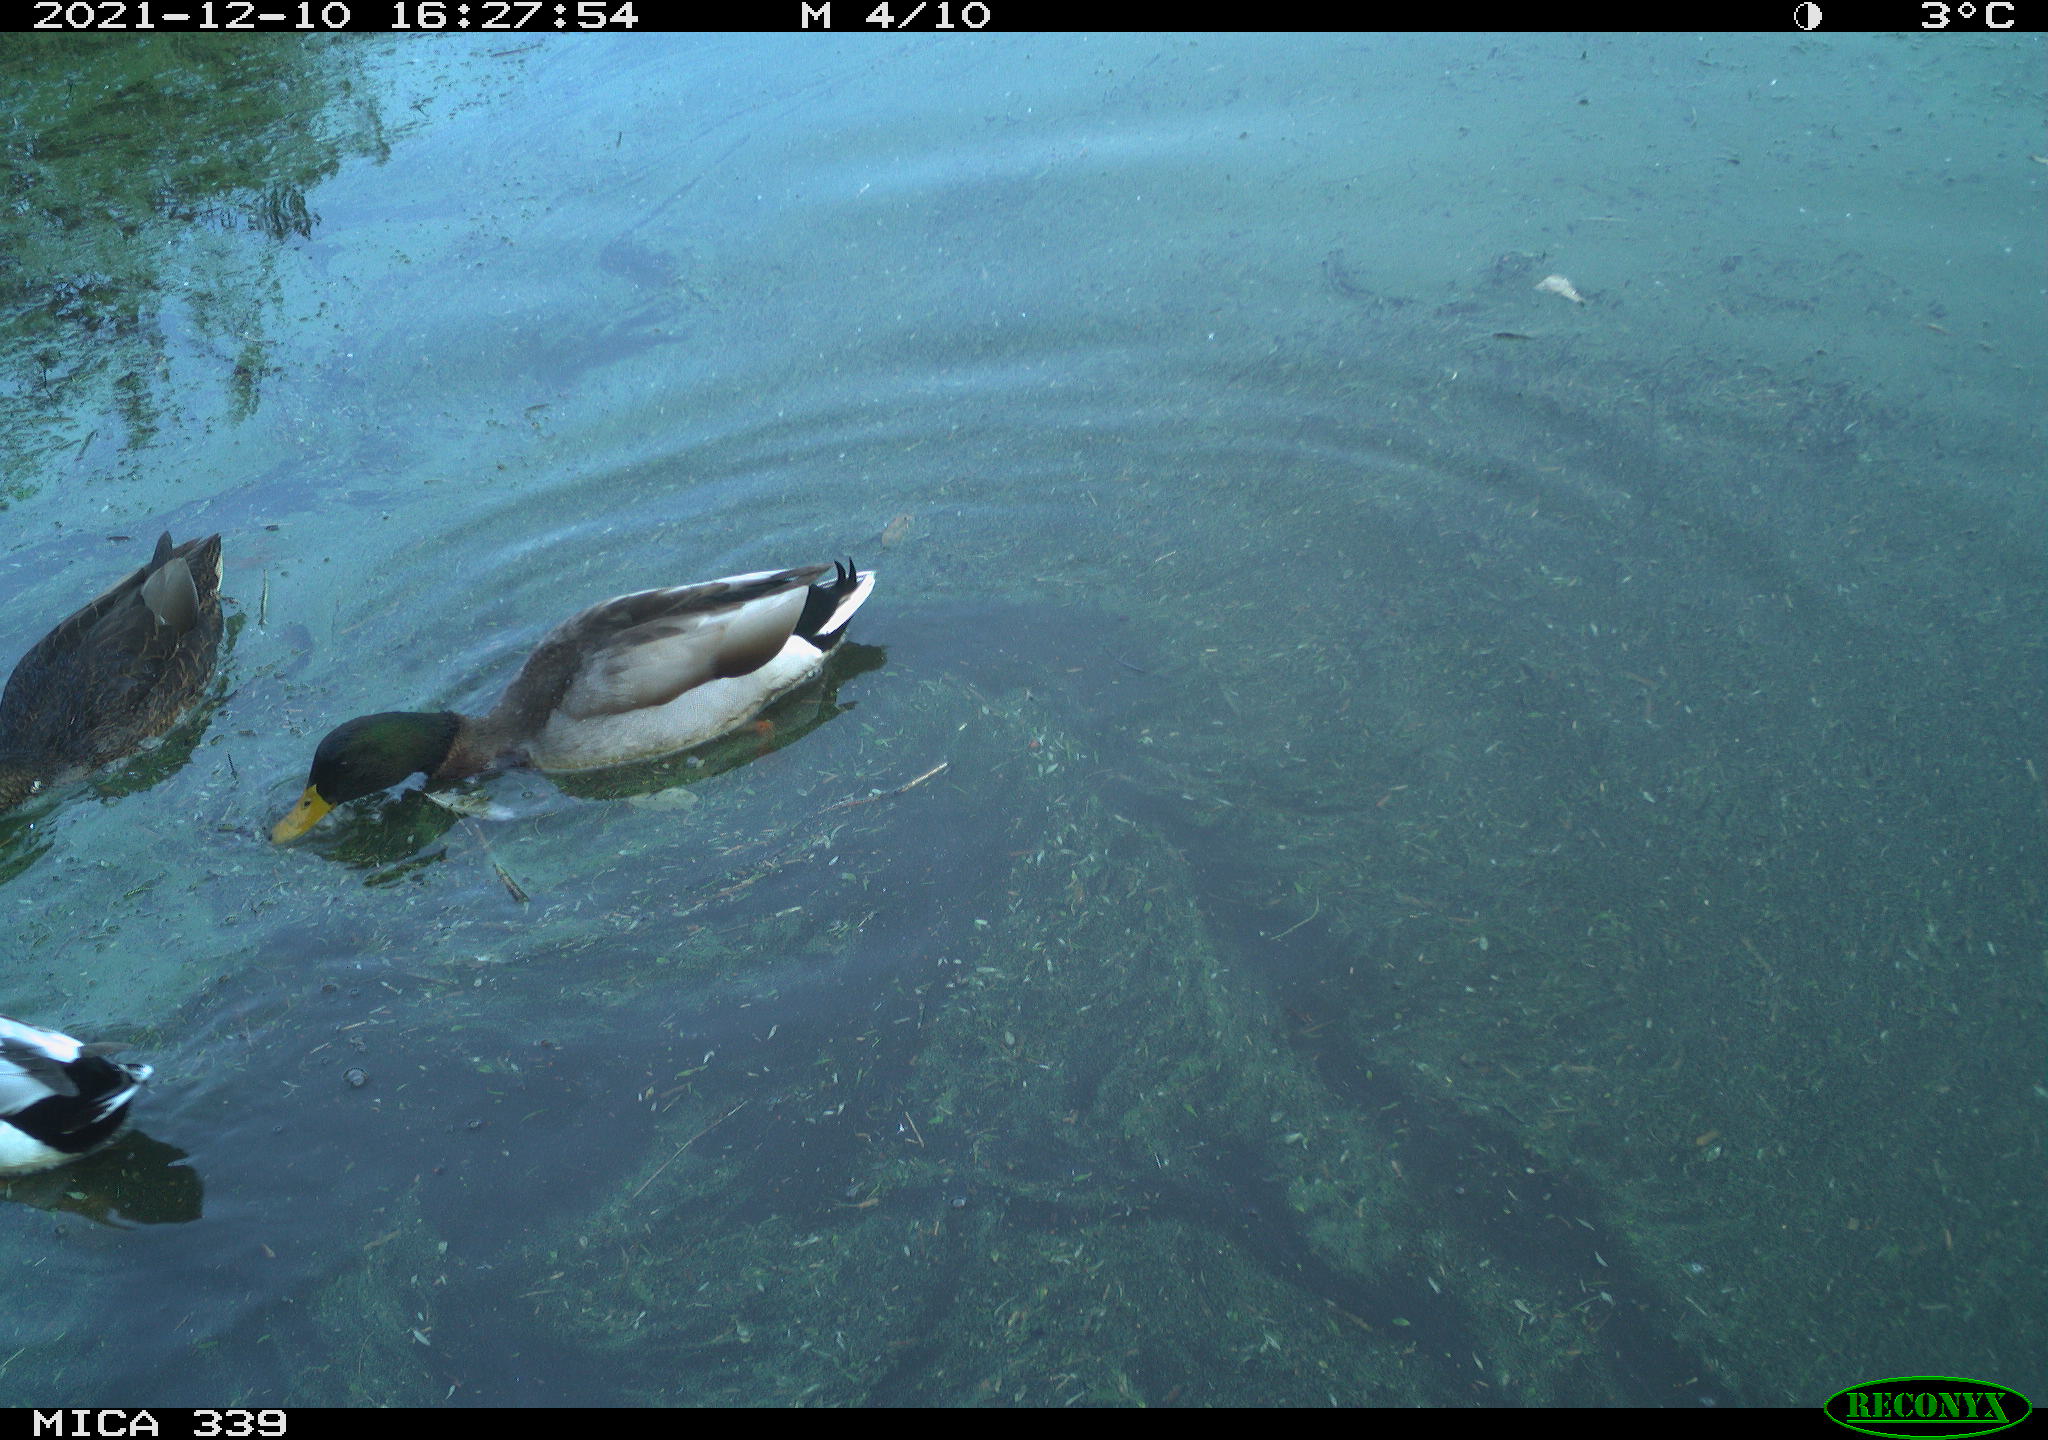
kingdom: Animalia
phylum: Chordata
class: Aves
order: Anseriformes
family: Anatidae
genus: Anas
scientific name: Anas platyrhynchos
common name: Mallard
